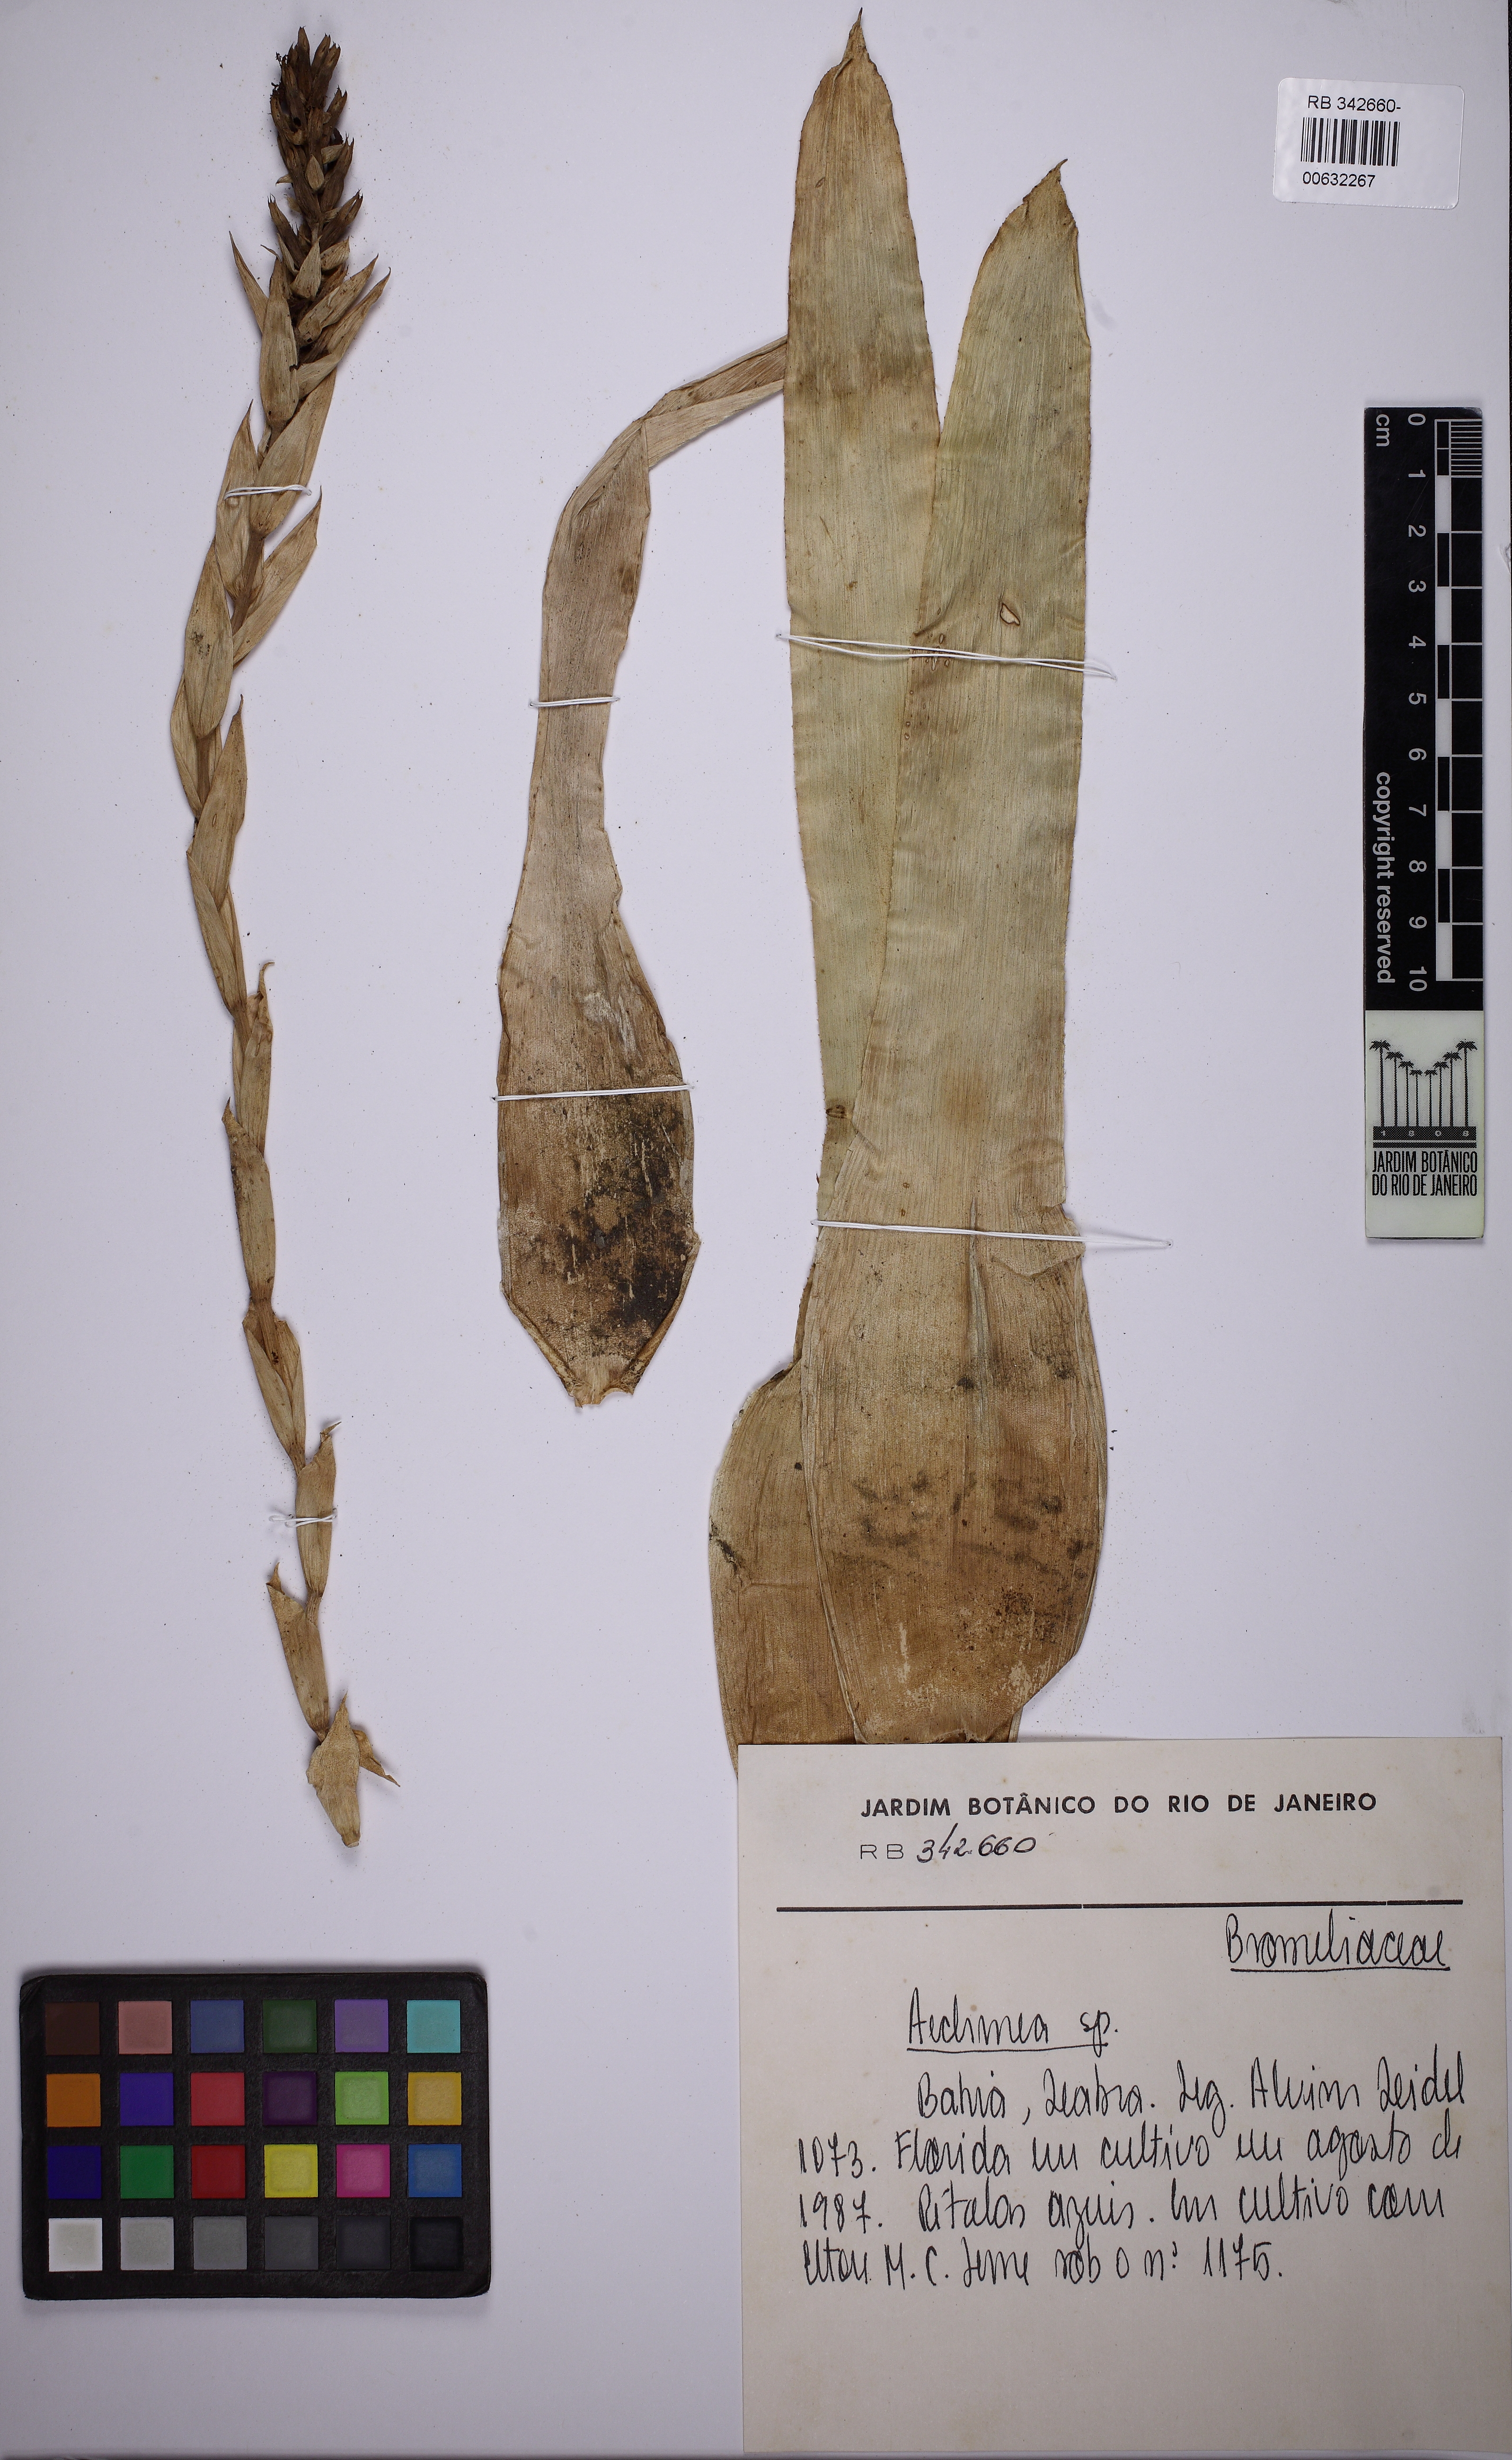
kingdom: Plantae
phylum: Tracheophyta
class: Liliopsida
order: Poales
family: Bromeliaceae
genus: Aechmea
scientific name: Aechmea
